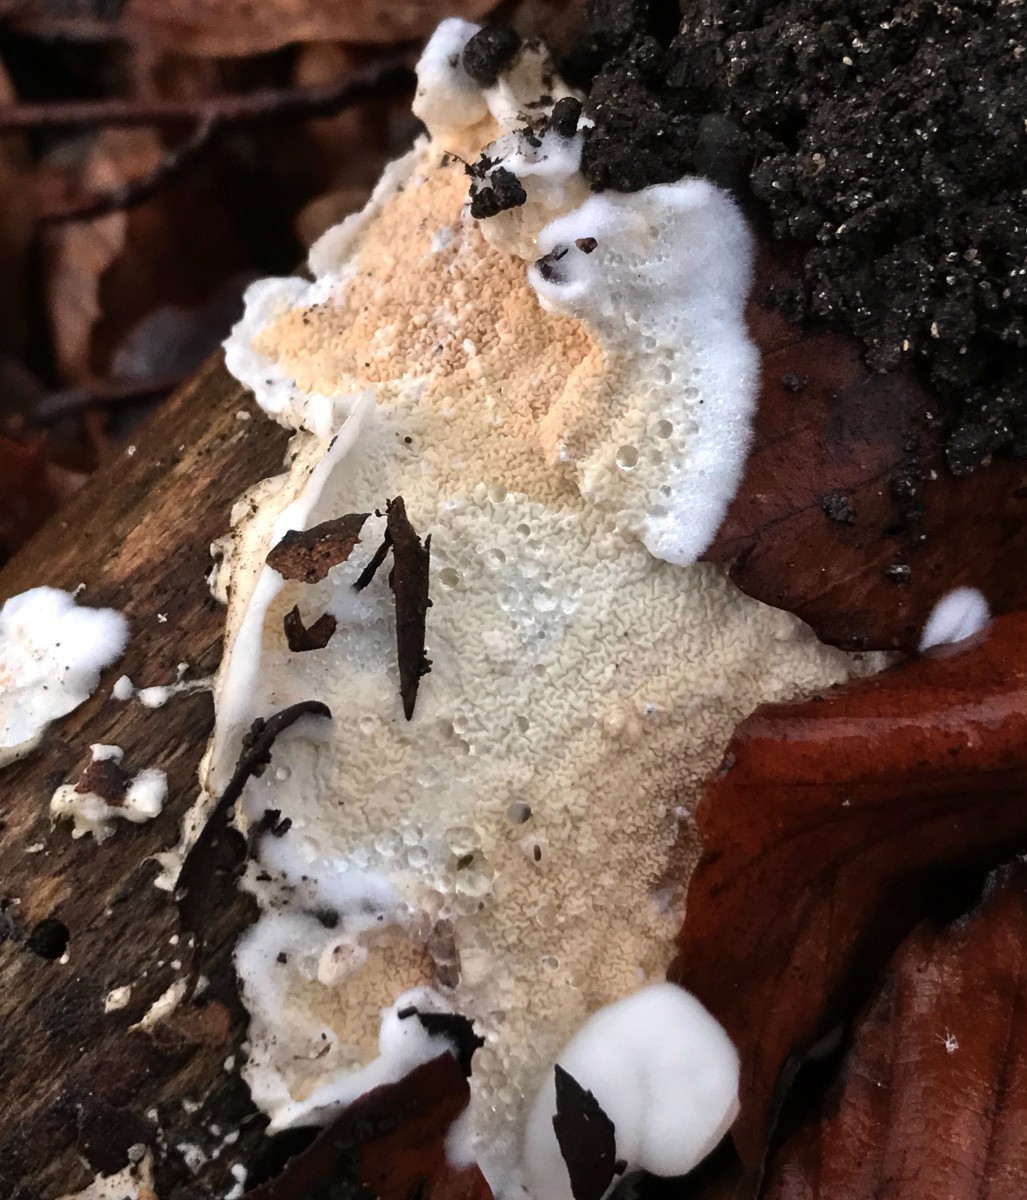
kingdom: Fungi
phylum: Basidiomycota
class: Agaricomycetes
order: Polyporales
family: Irpicaceae
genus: Byssomerulius
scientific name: Byssomerulius corium
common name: læder-åresvamp
